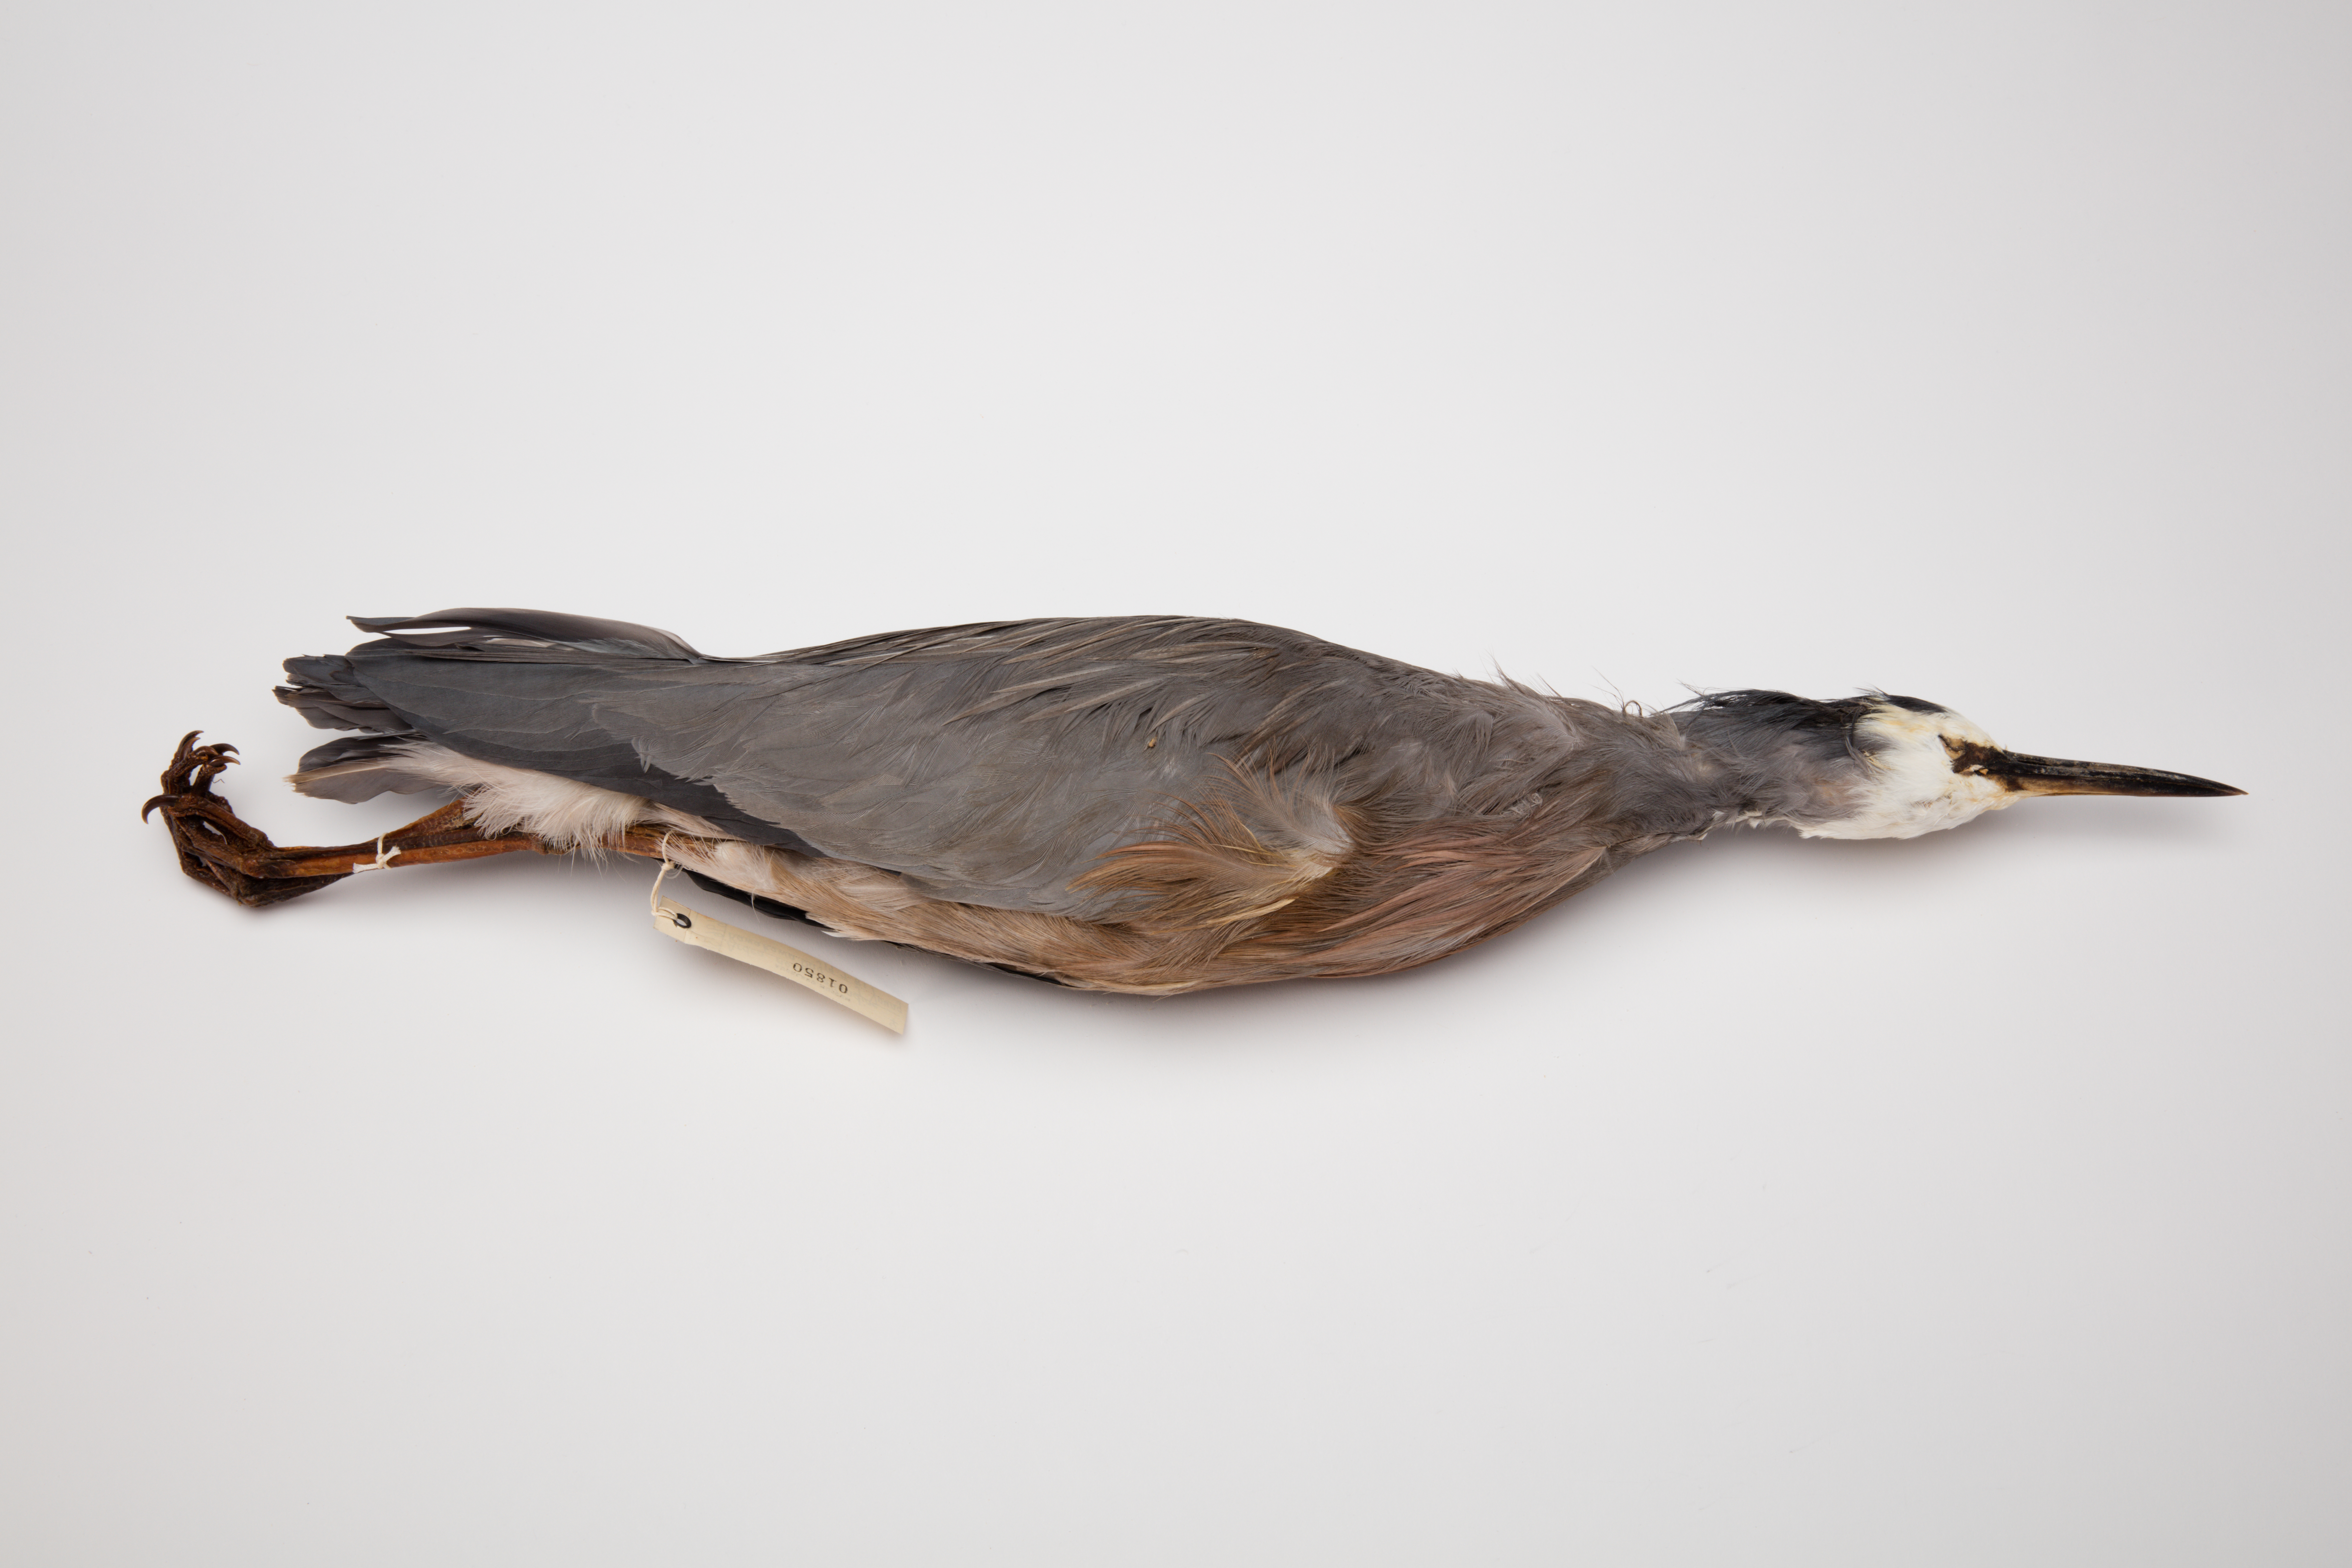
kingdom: Animalia
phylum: Chordata
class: Aves
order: Pelecaniformes
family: Ardeidae
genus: Egretta
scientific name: Egretta novaehollandiae
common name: White-faced heron
